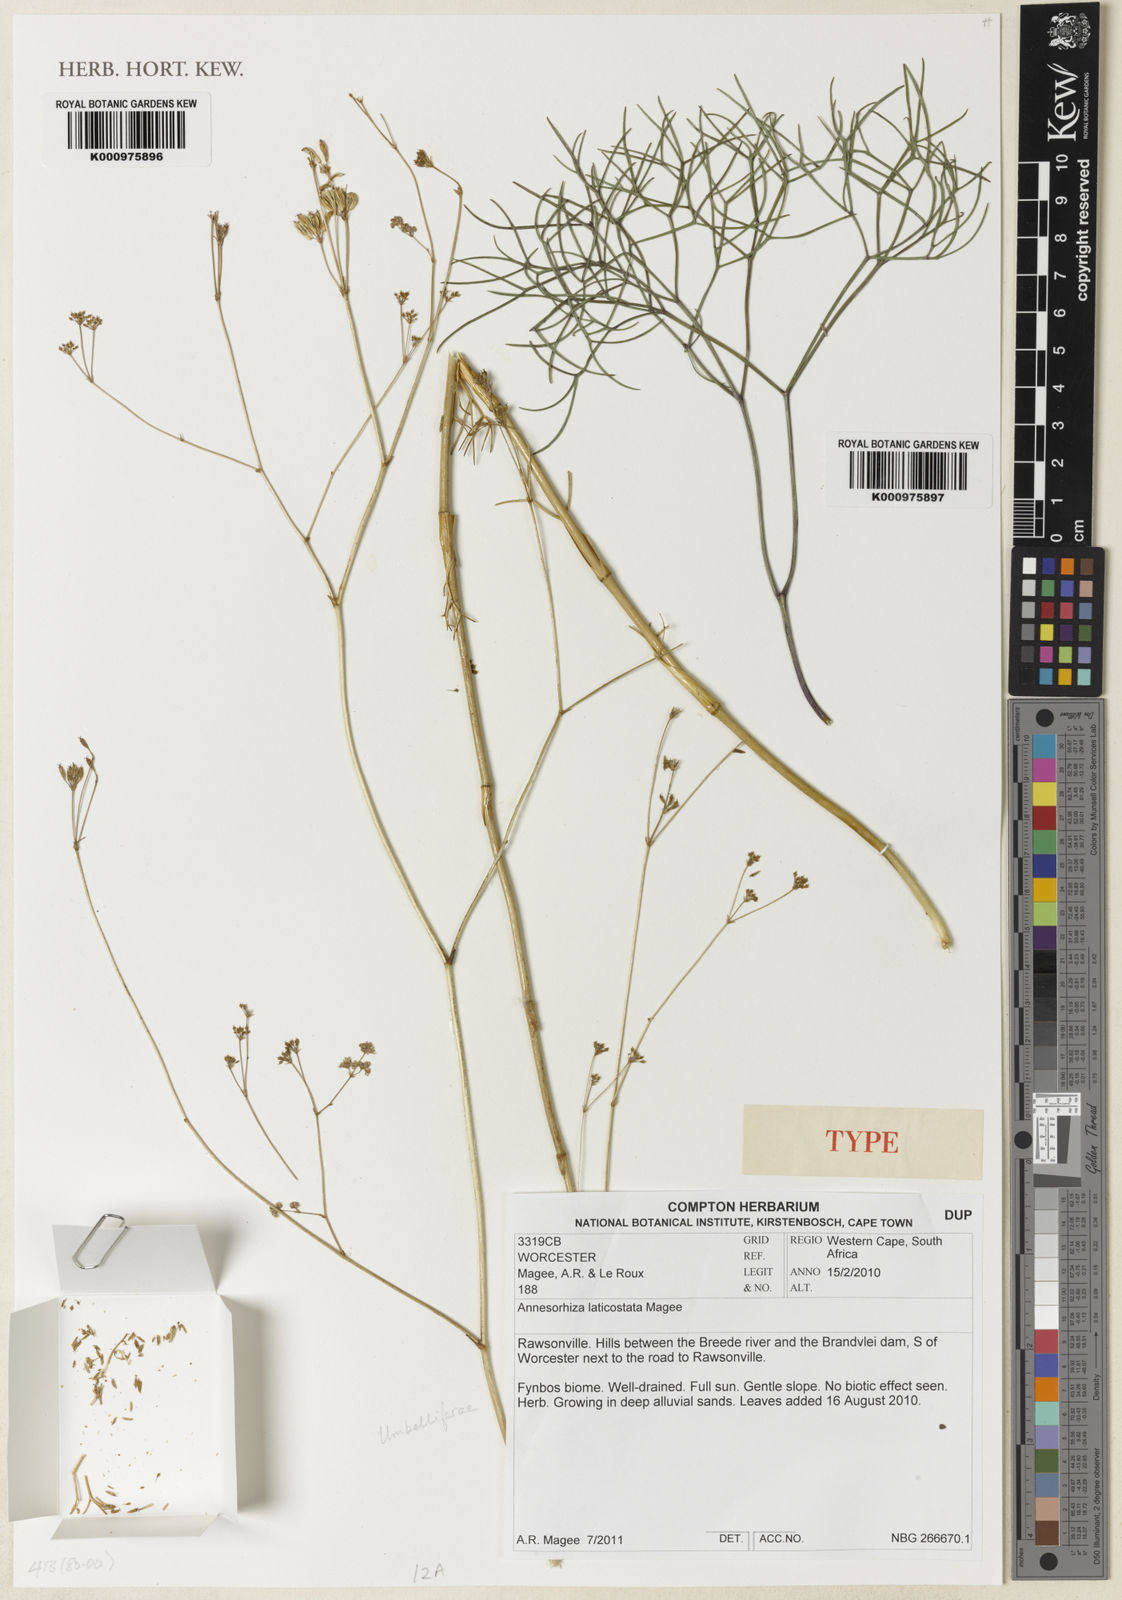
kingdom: Plantae
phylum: Tracheophyta
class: Magnoliopsida
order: Apiales
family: Apiaceae
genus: Annesorhiza
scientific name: Annesorhiza laticostata
